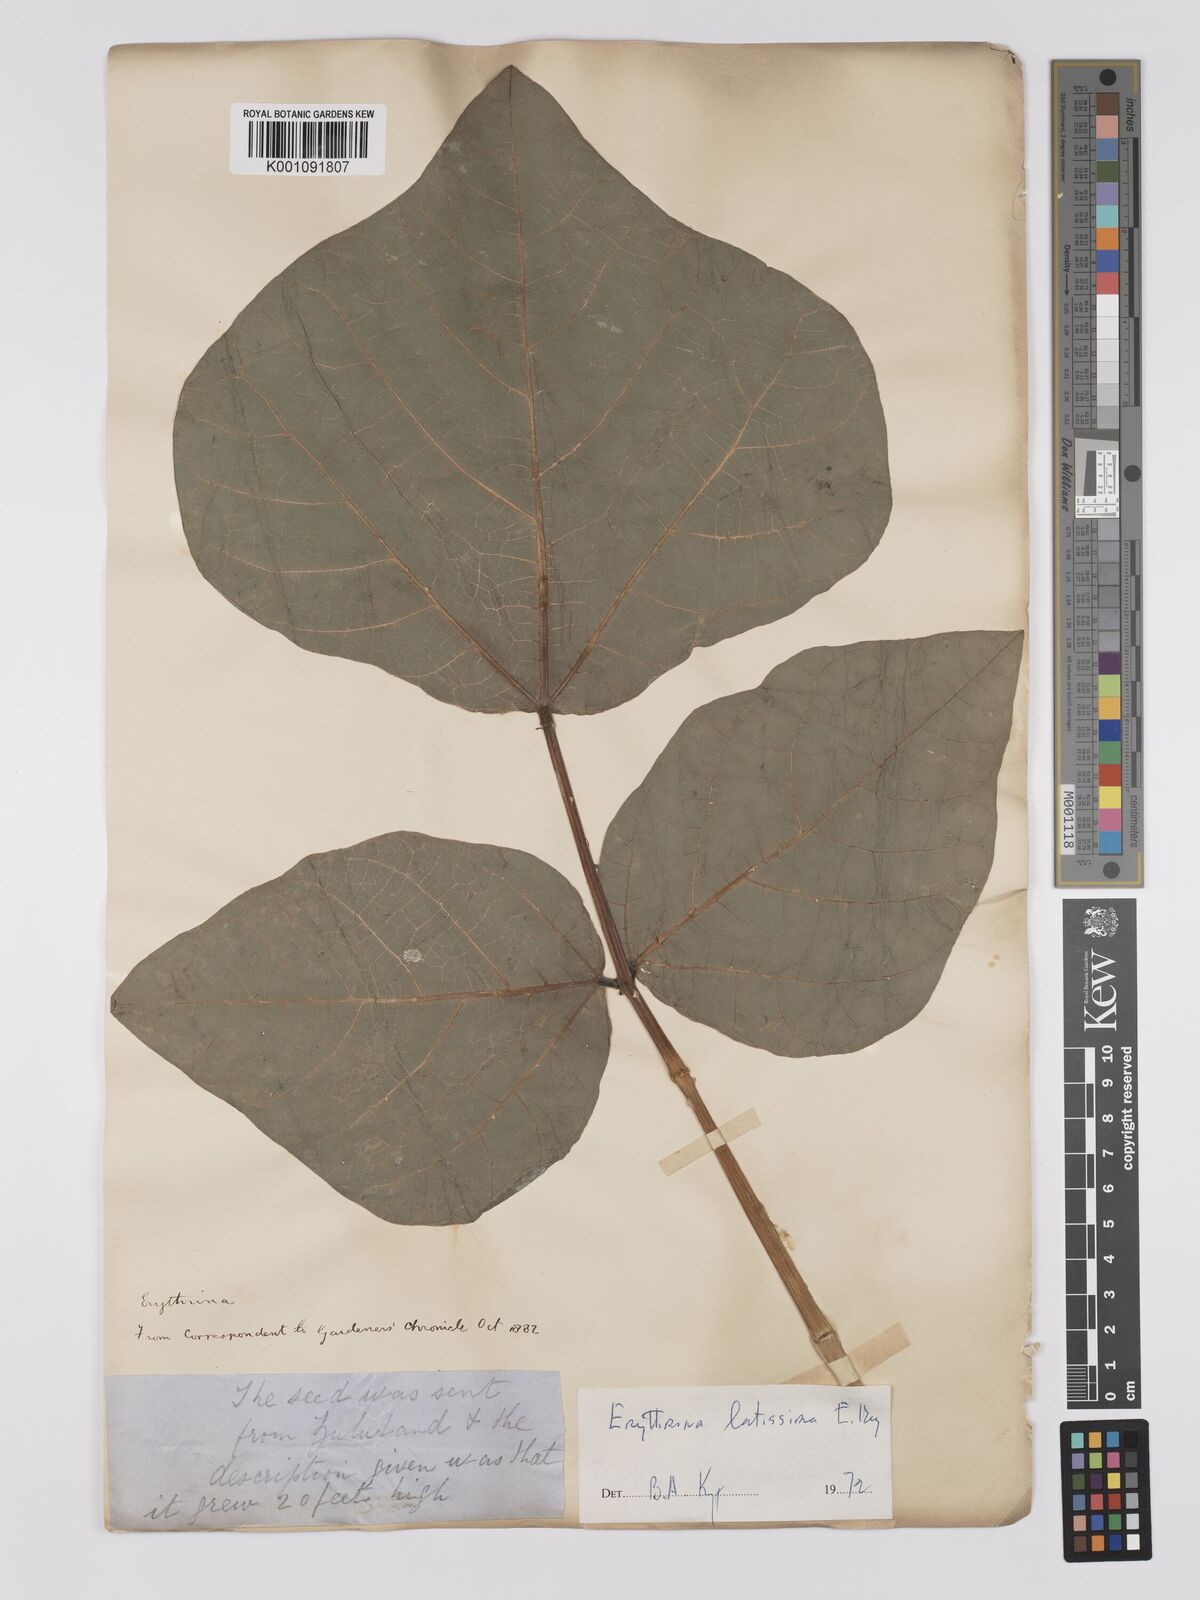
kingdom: Plantae
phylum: Tracheophyta
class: Magnoliopsida
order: Fabales
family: Fabaceae
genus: Erythrina
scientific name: Erythrina latissima
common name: Broad-leaved coral tree
